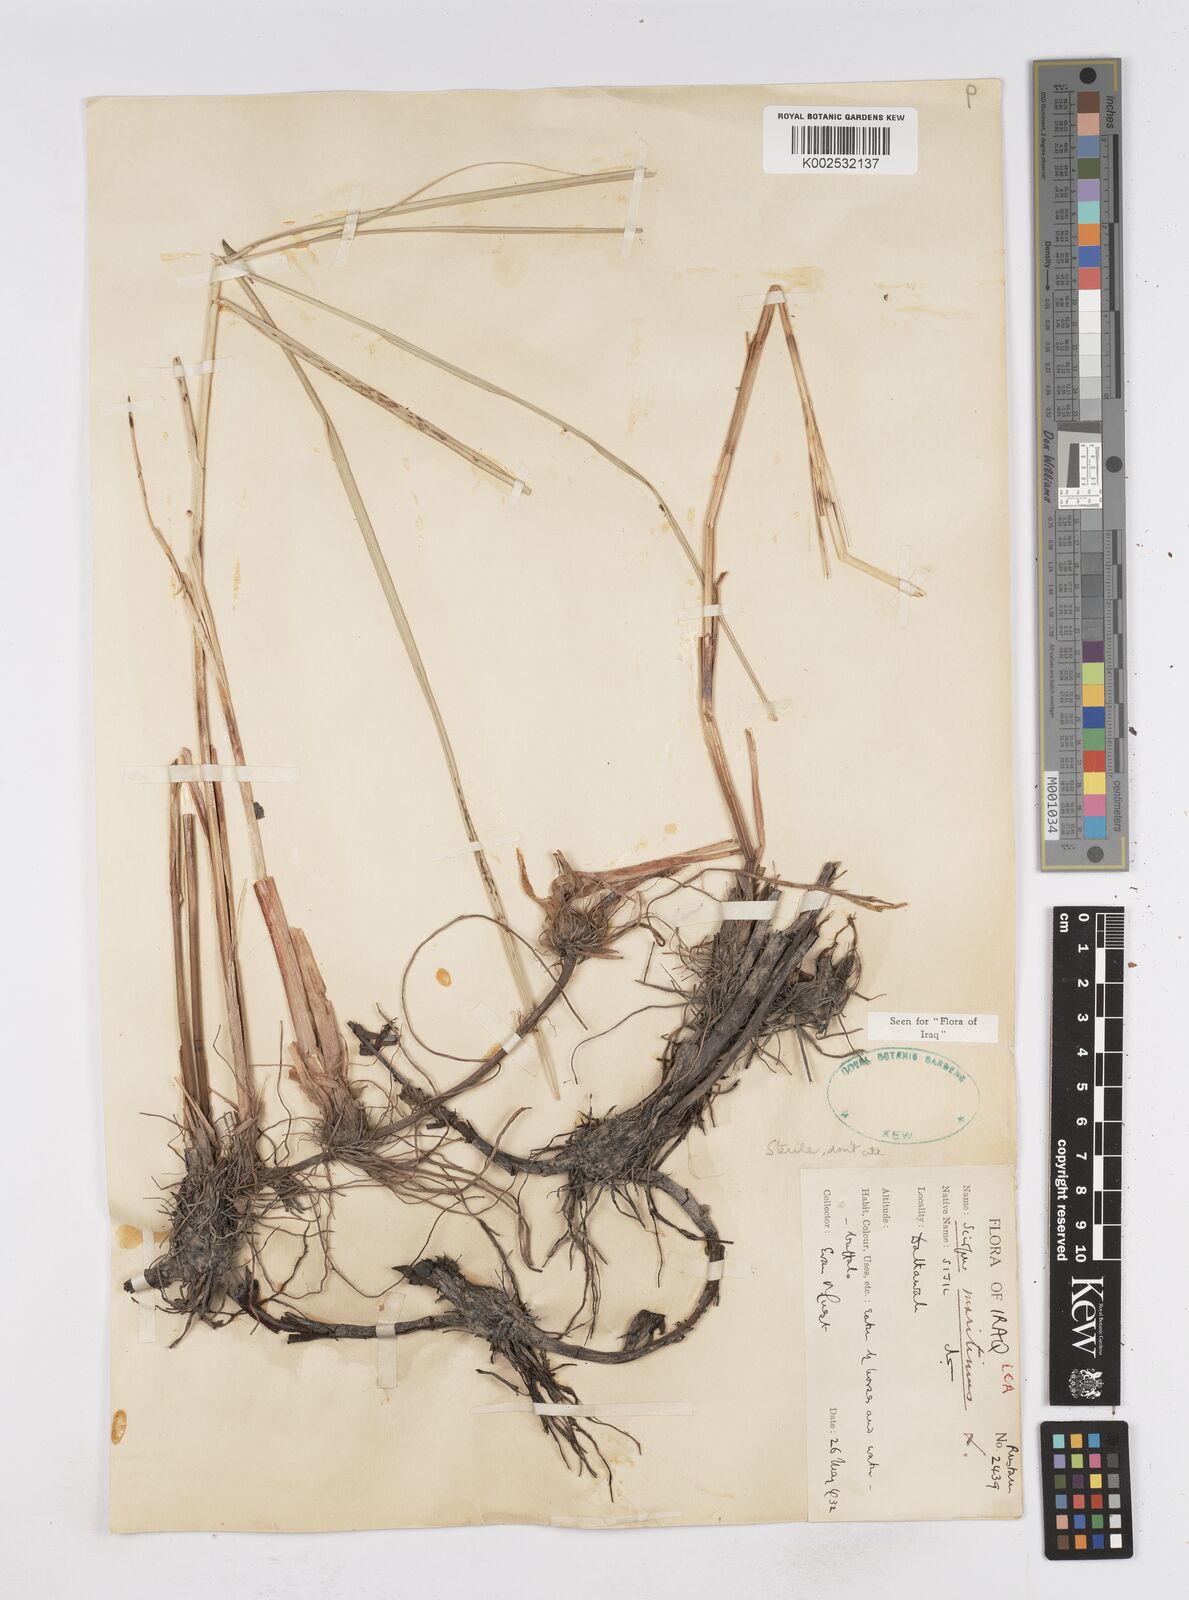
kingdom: Plantae
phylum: Tracheophyta
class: Liliopsida
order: Poales
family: Cyperaceae
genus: Bolboschoenus
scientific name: Bolboschoenus maritimus
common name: Sea club-rush
